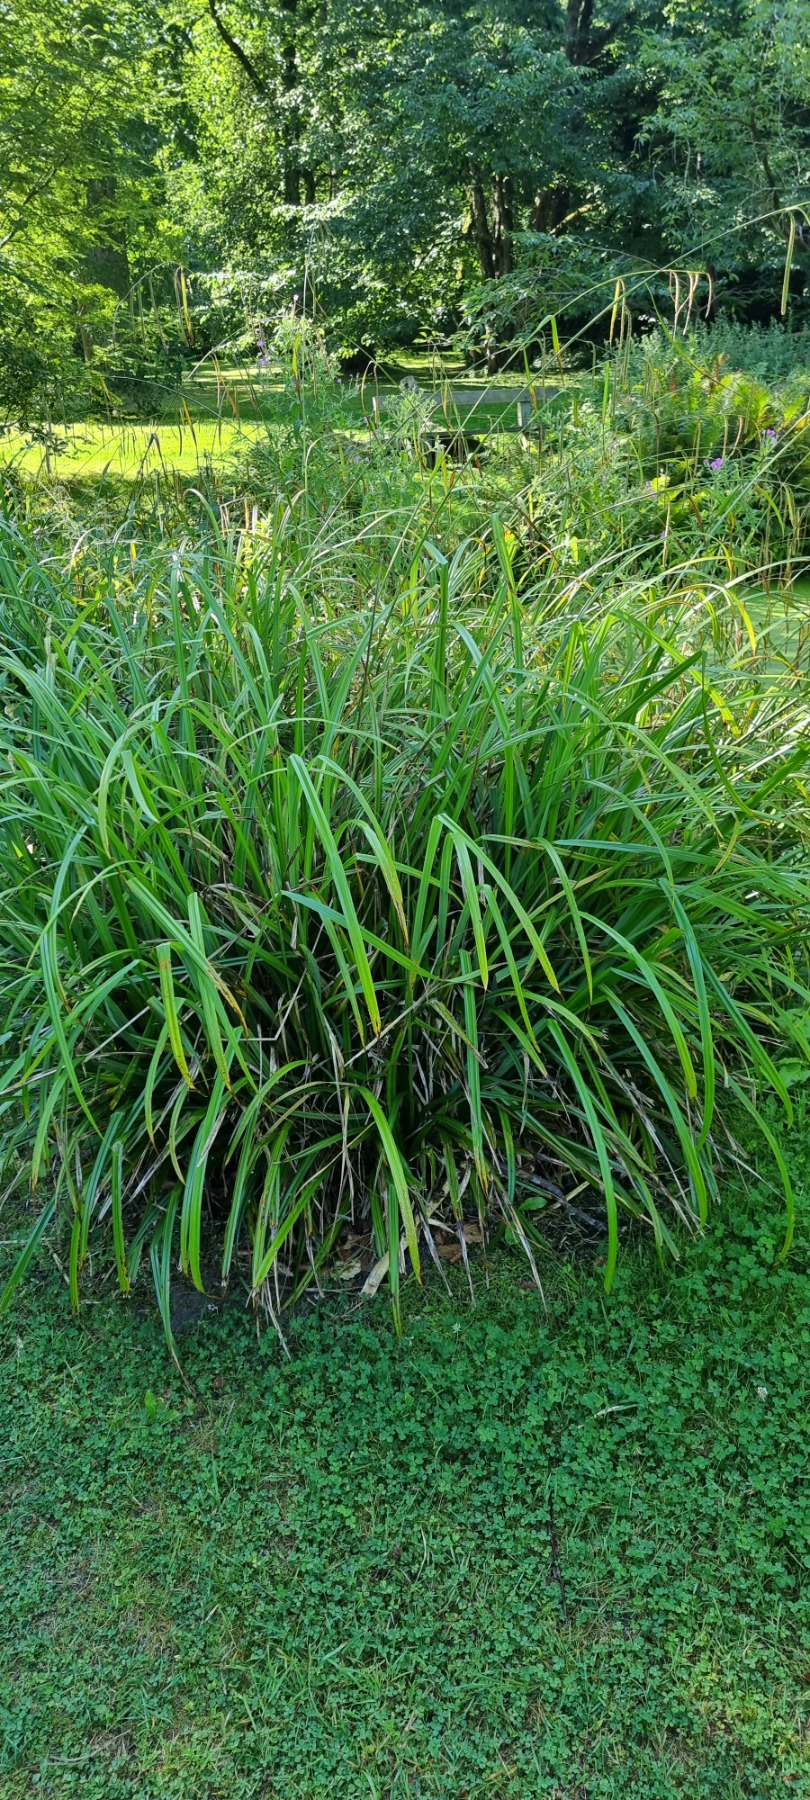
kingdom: Plantae
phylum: Tracheophyta
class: Liliopsida
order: Poales
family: Cyperaceae
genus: Carex
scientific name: Carex pendula
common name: Kæmpe-star
